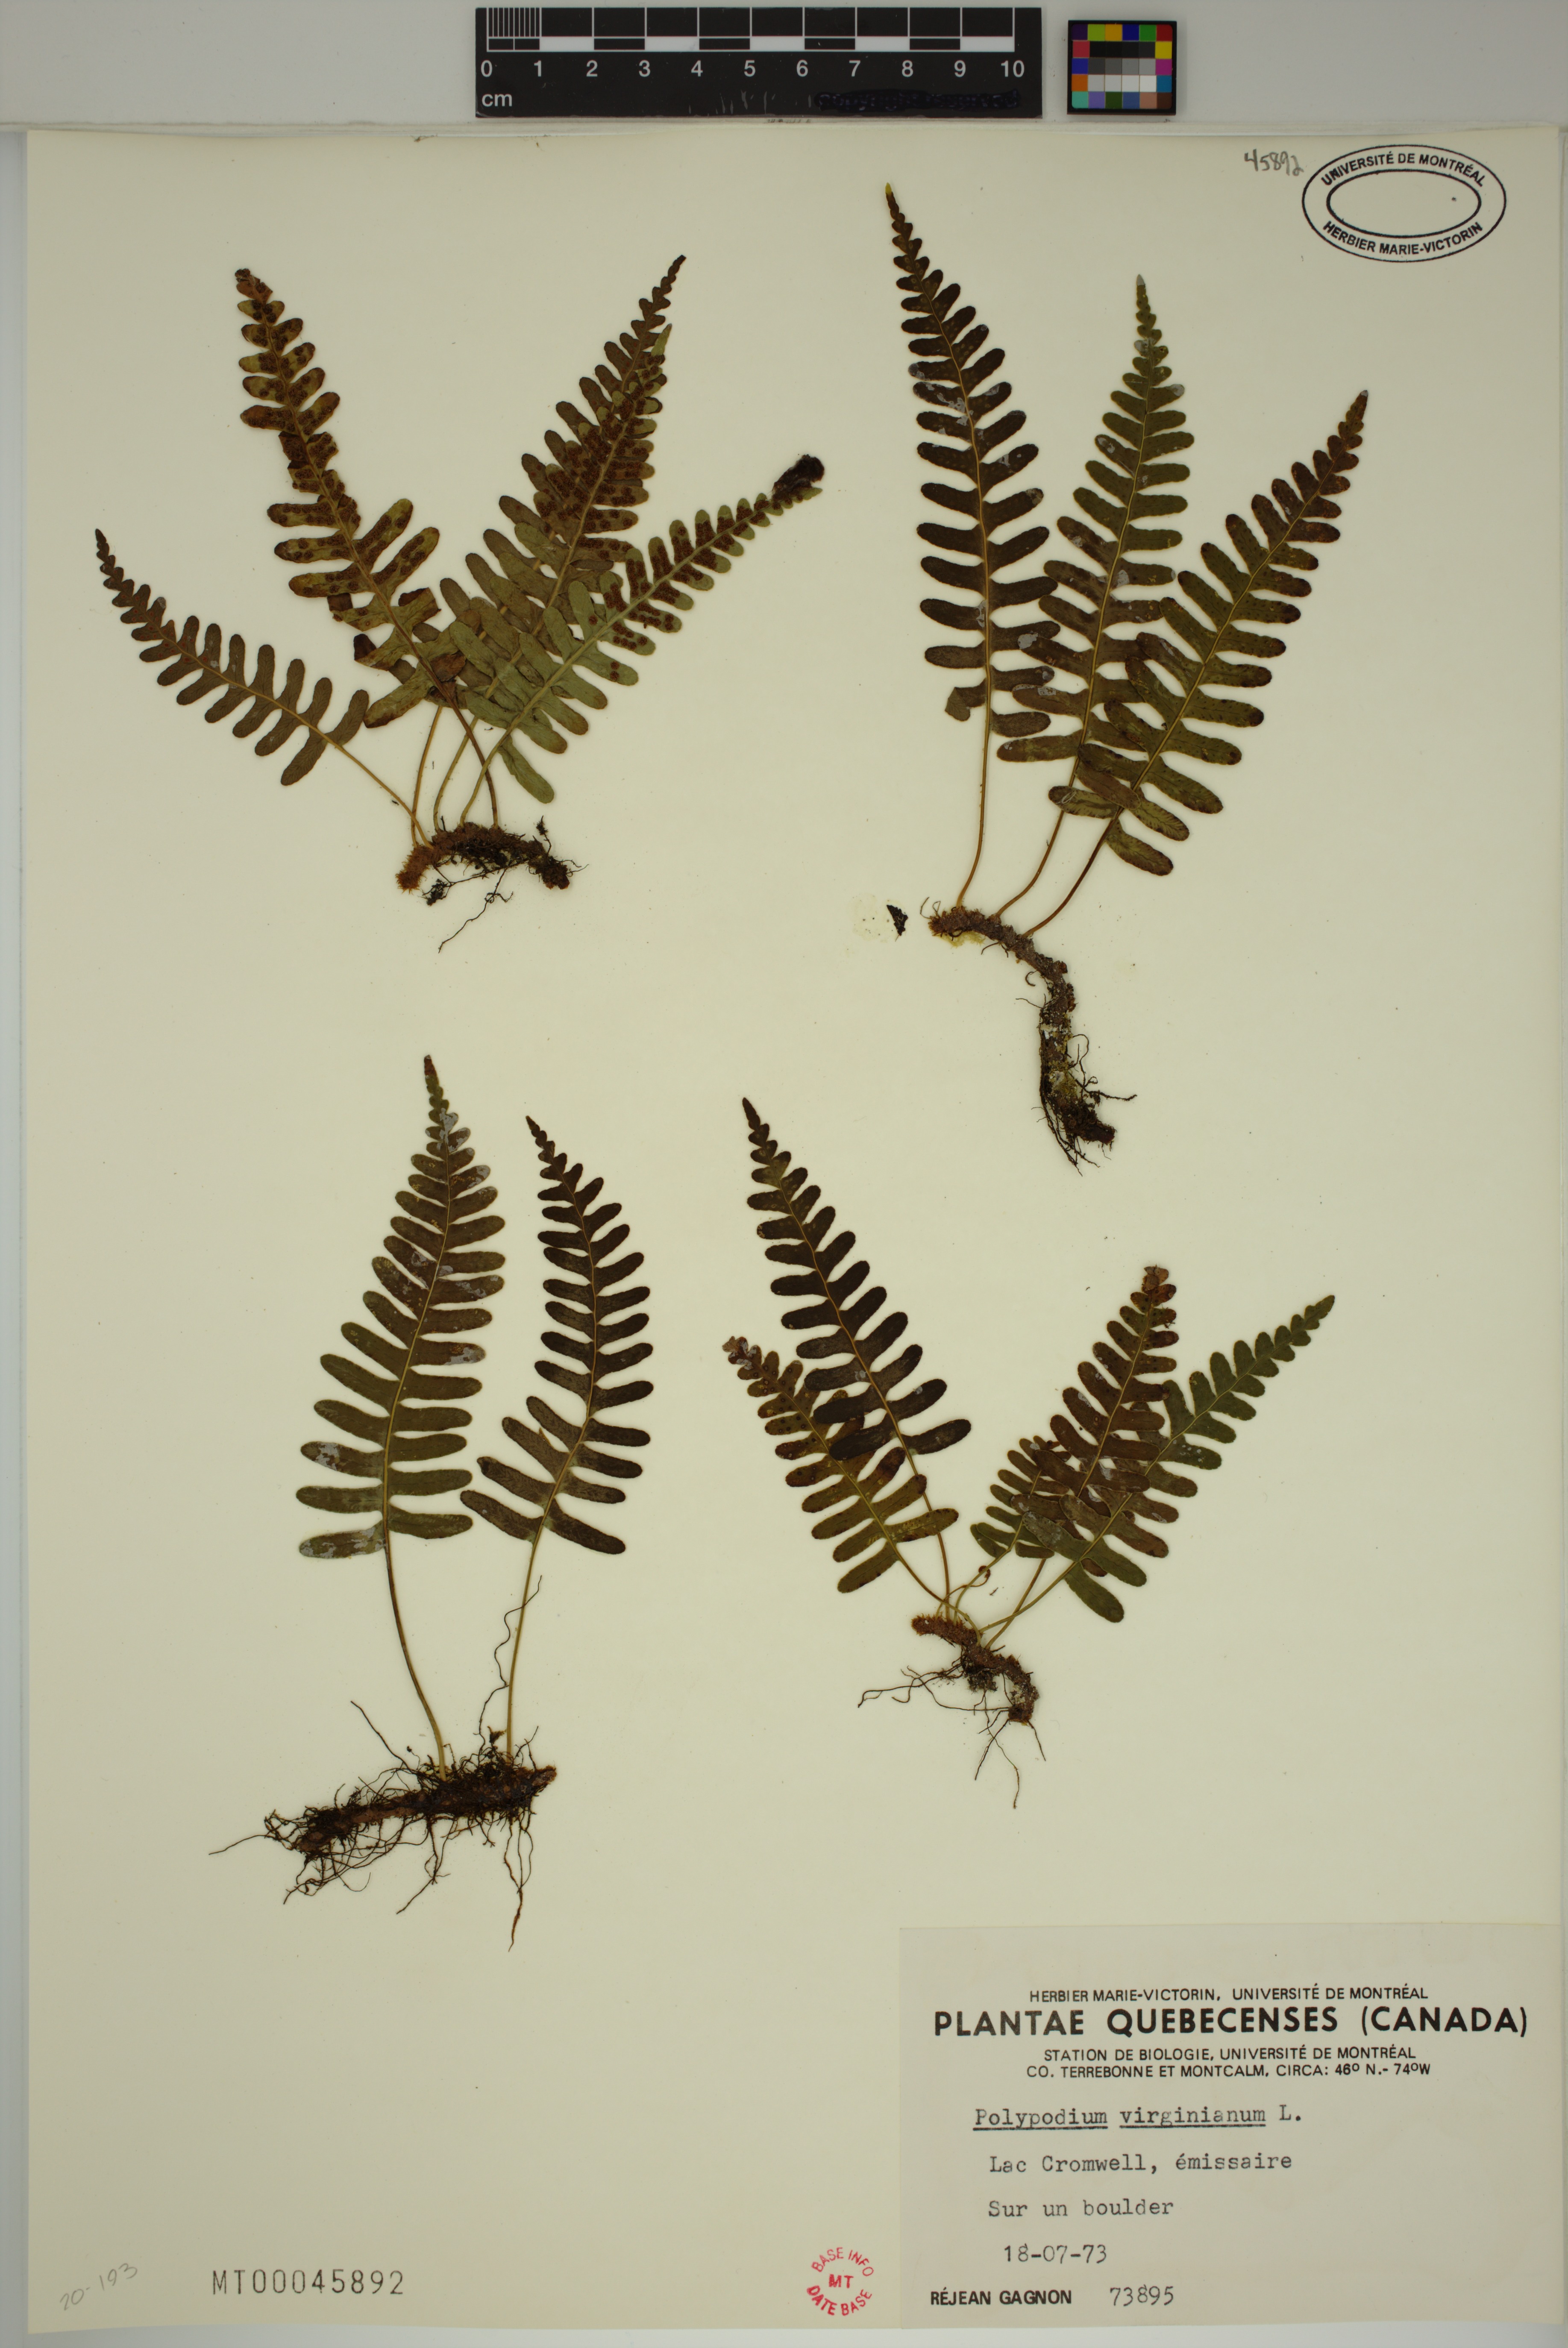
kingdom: Plantae
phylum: Tracheophyta
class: Polypodiopsida
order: Polypodiales
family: Polypodiaceae
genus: Polypodium
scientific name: Polypodium virginianum
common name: American wall fern
